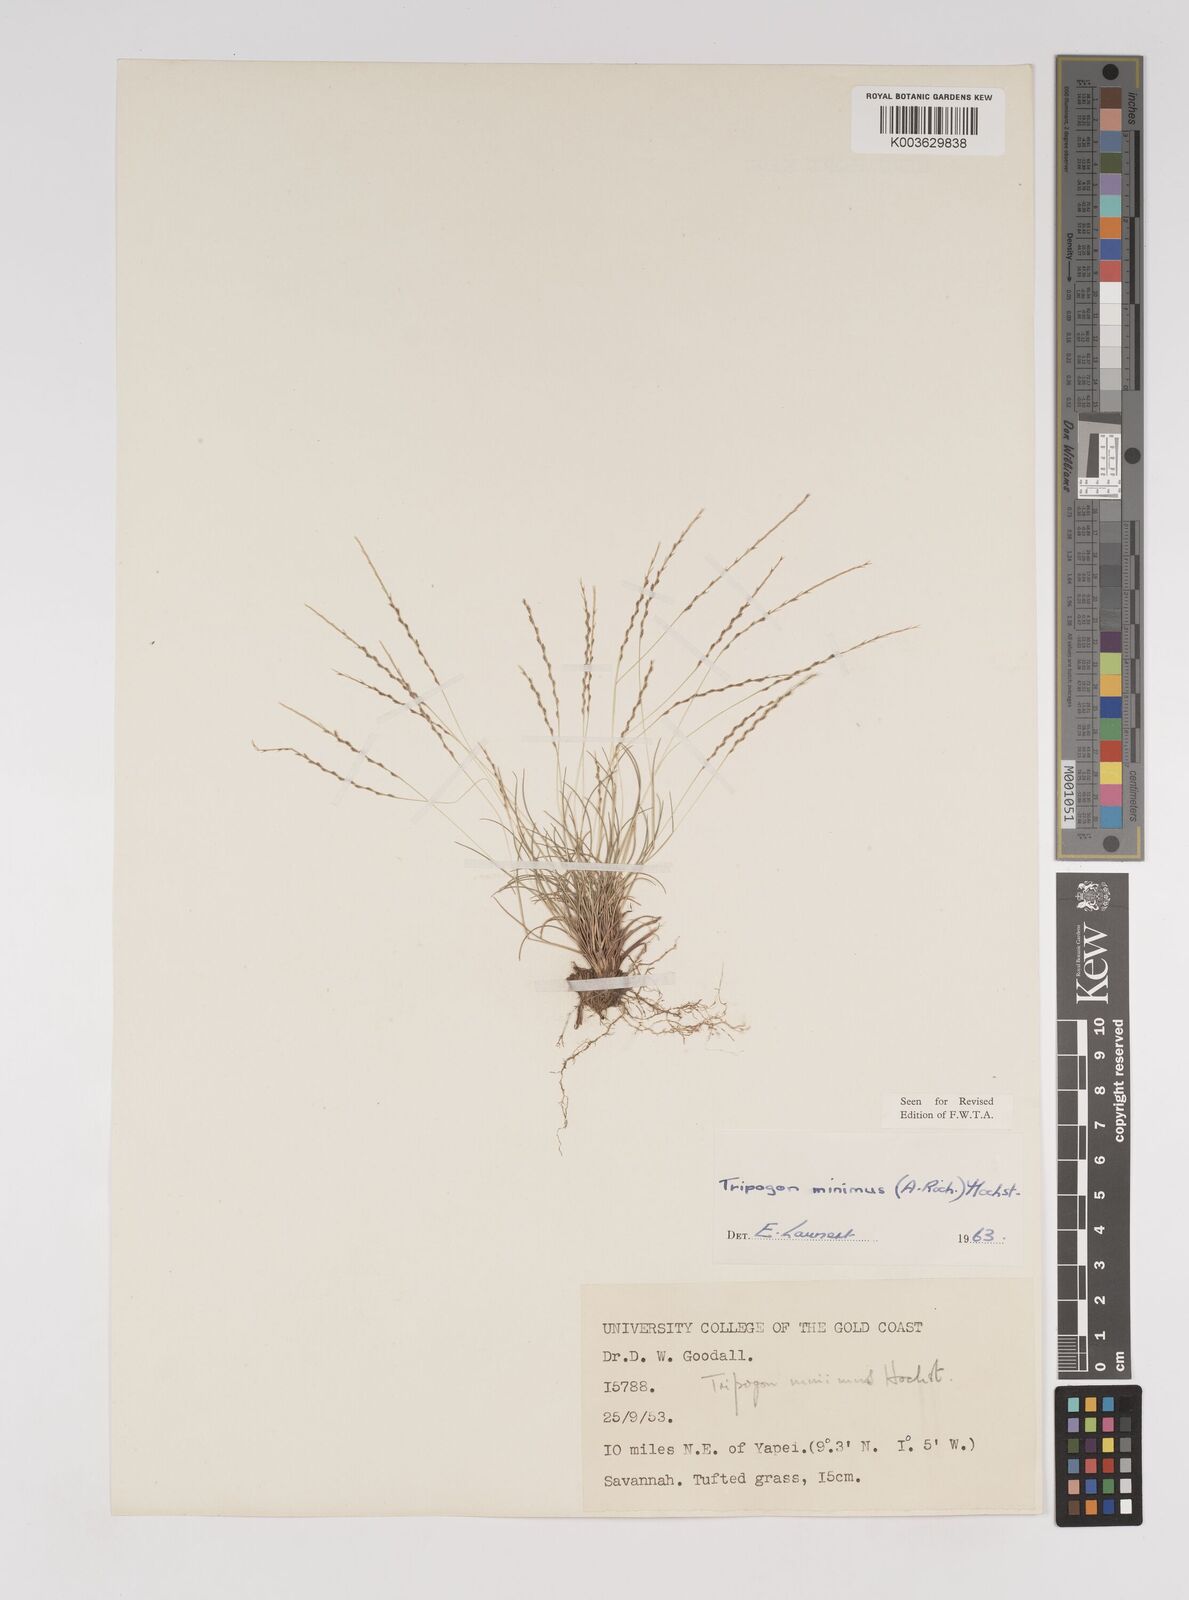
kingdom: Plantae
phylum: Tracheophyta
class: Liliopsida
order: Poales
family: Poaceae
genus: Tripogonella
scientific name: Tripogonella minima
